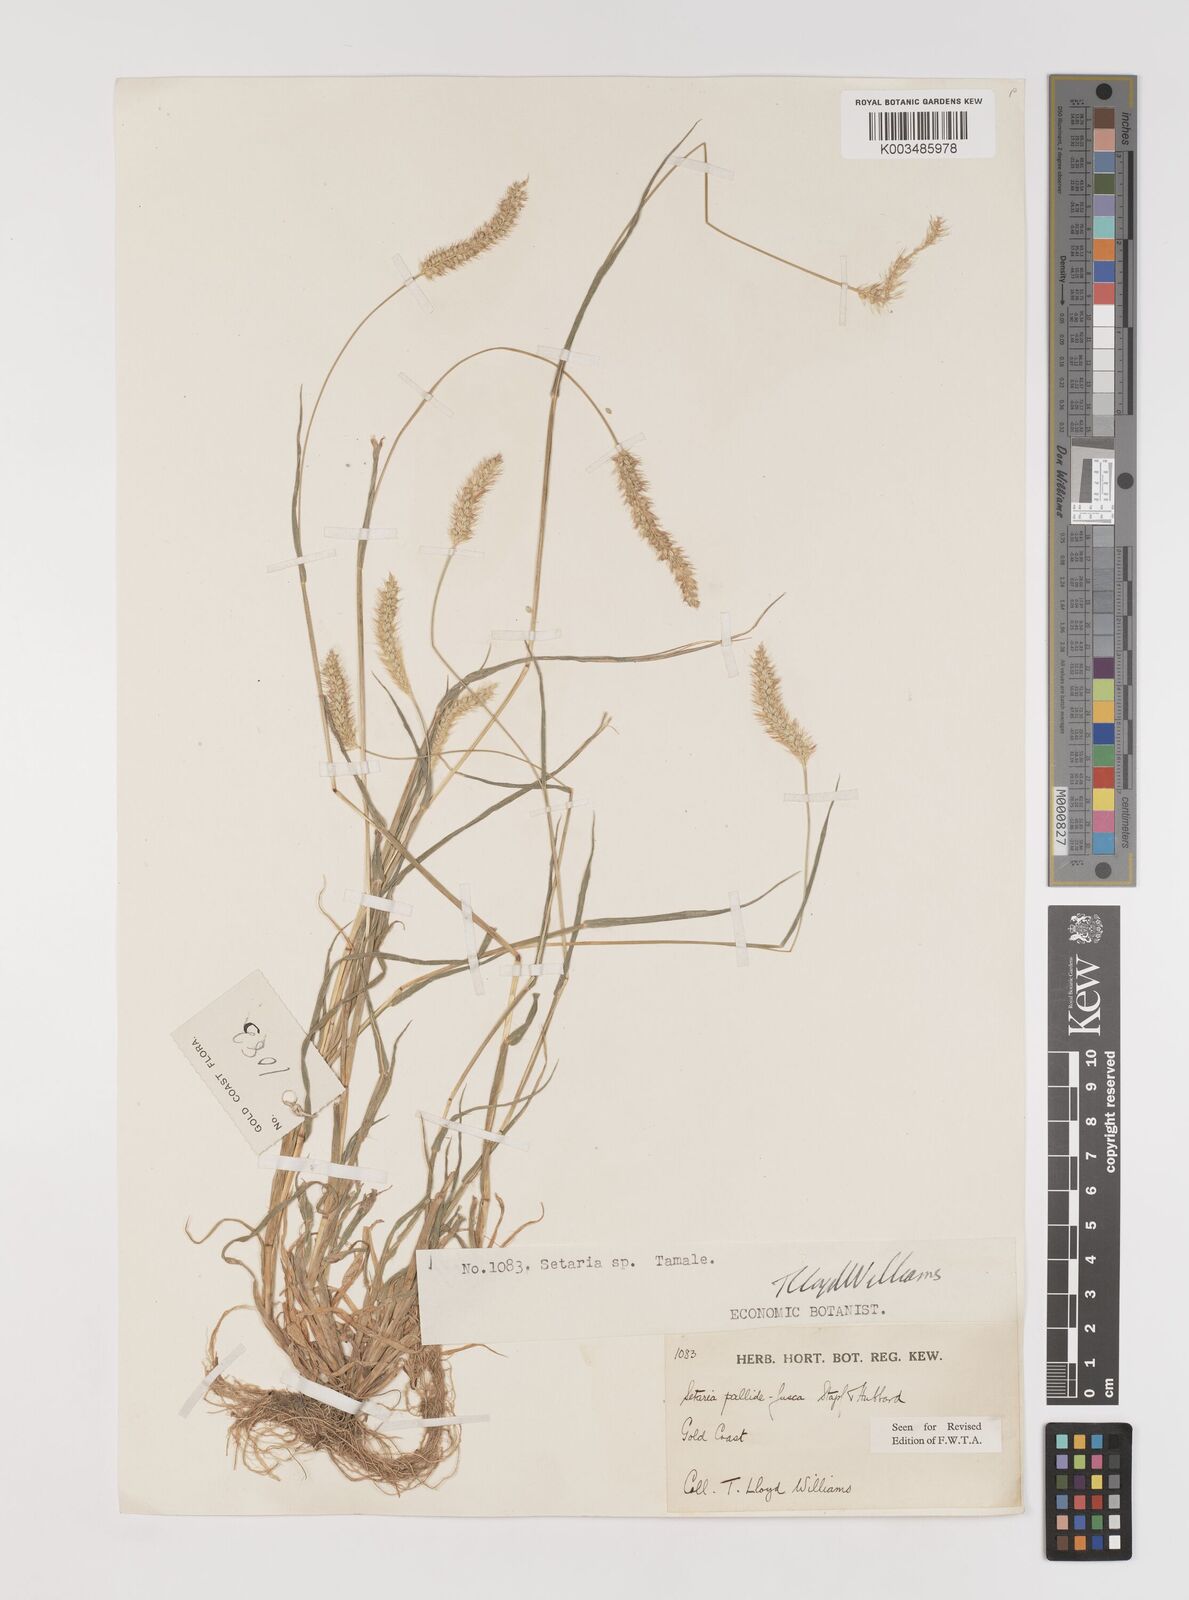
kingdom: Plantae
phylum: Tracheophyta
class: Liliopsida
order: Poales
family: Poaceae
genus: Setaria
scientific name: Setaria pumila
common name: Yellow bristle-grass
